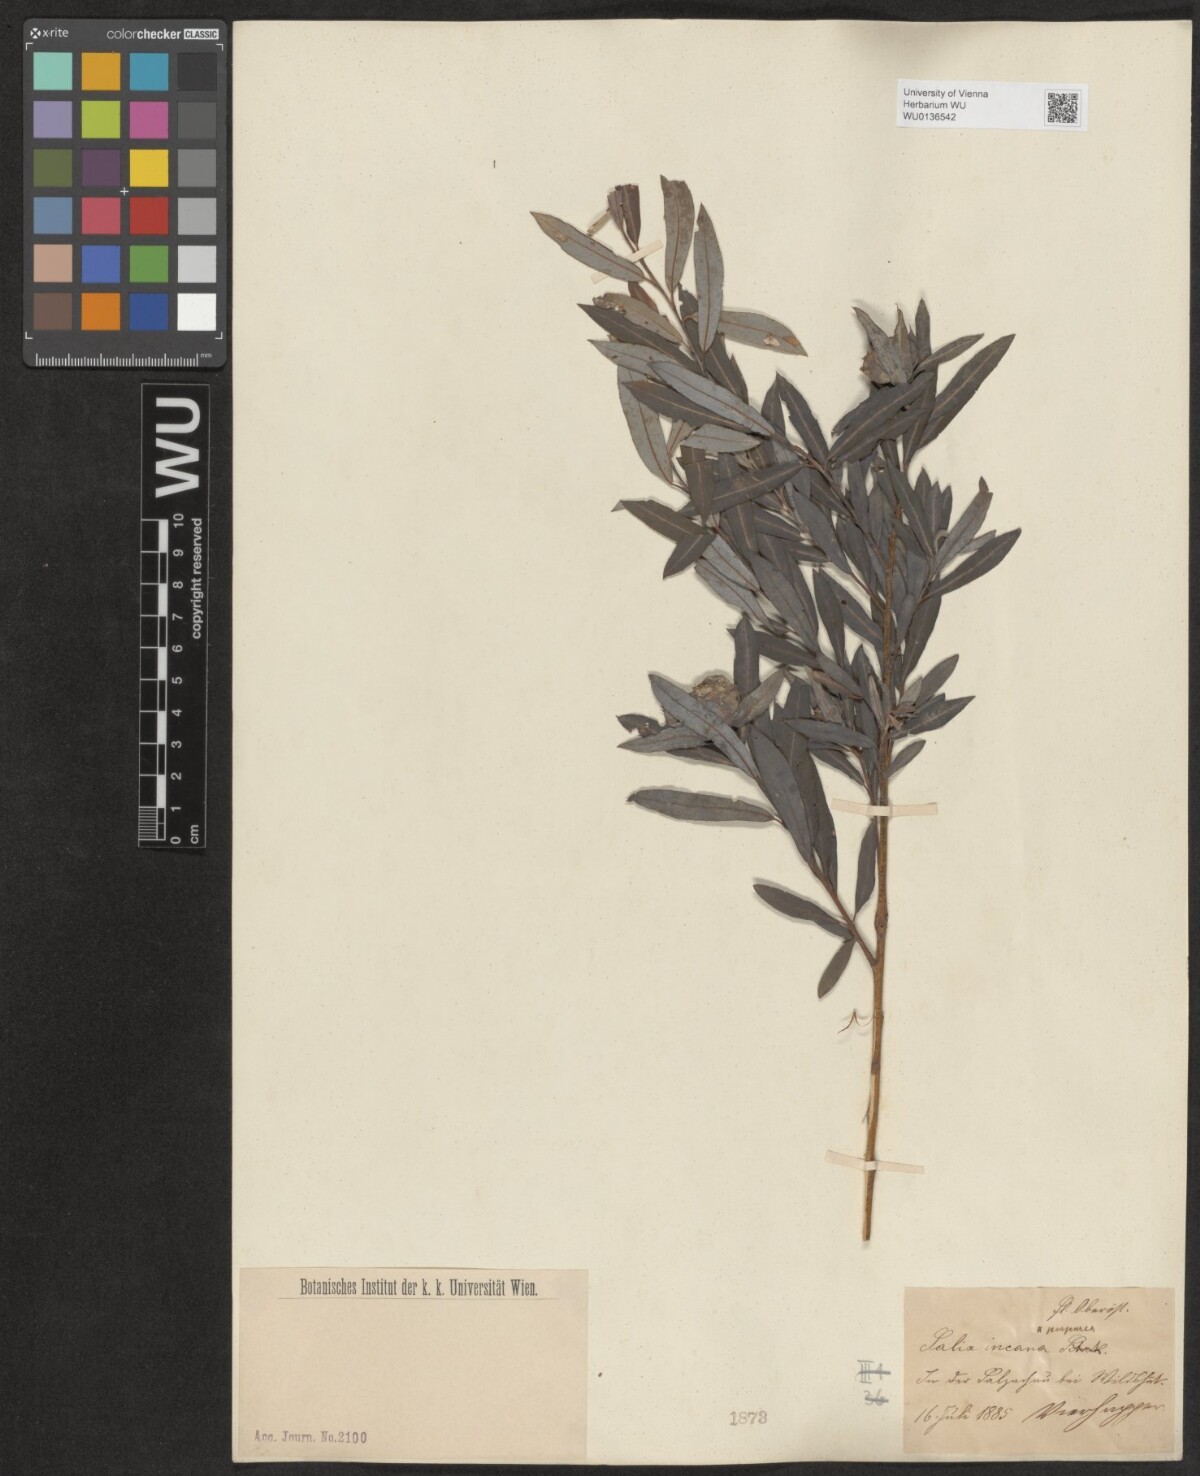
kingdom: Plantae
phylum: Tracheophyta
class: Magnoliopsida
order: Malpighiales
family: Salicaceae
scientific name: Salicaceae
